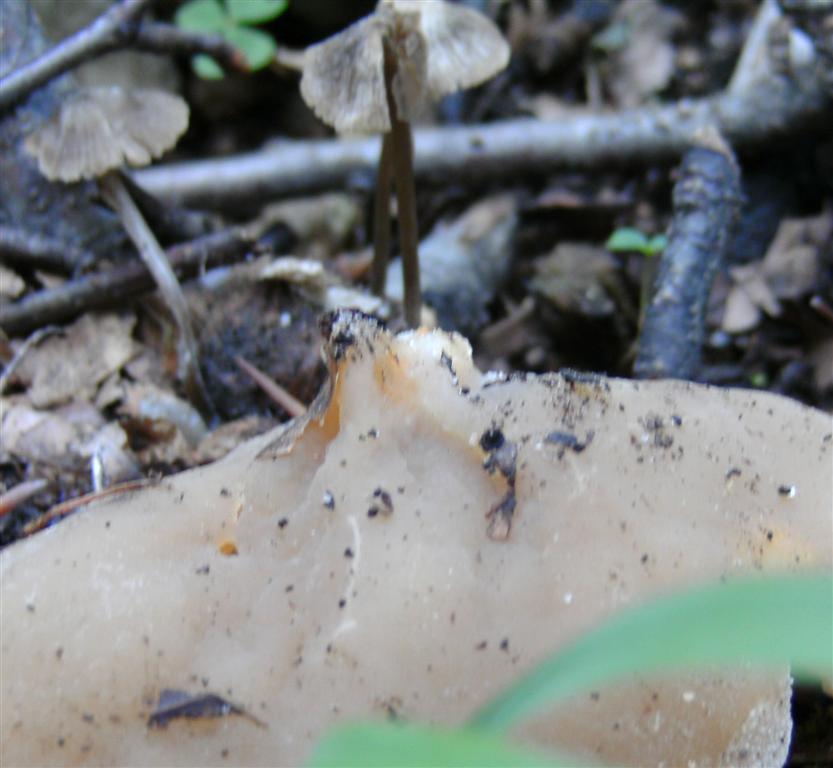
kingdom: Fungi
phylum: Ascomycota
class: Pezizomycetes
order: Pezizales
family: Pezizaceae
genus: Peziza
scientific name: Peziza varia
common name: Ved-bægersvamp
